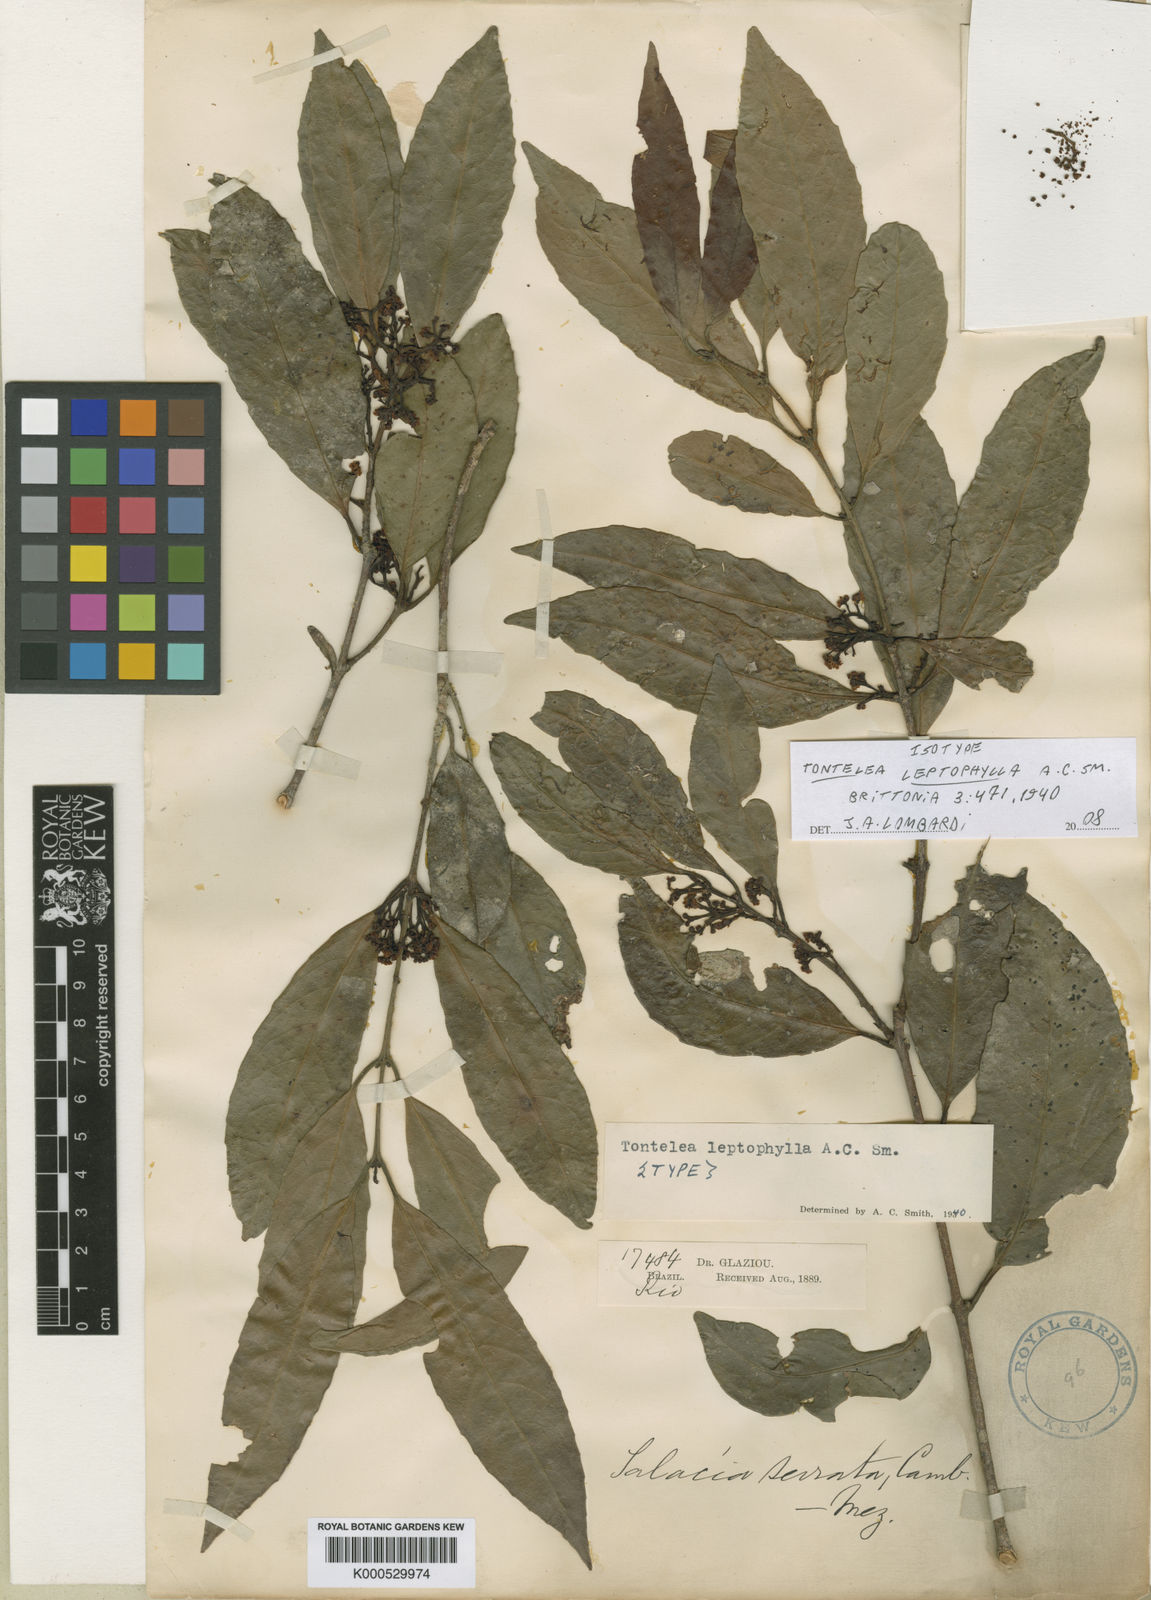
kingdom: Plantae
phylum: Tracheophyta
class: Magnoliopsida
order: Celastrales
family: Celastraceae
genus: Tontelea
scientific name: Tontelea leptophylla
